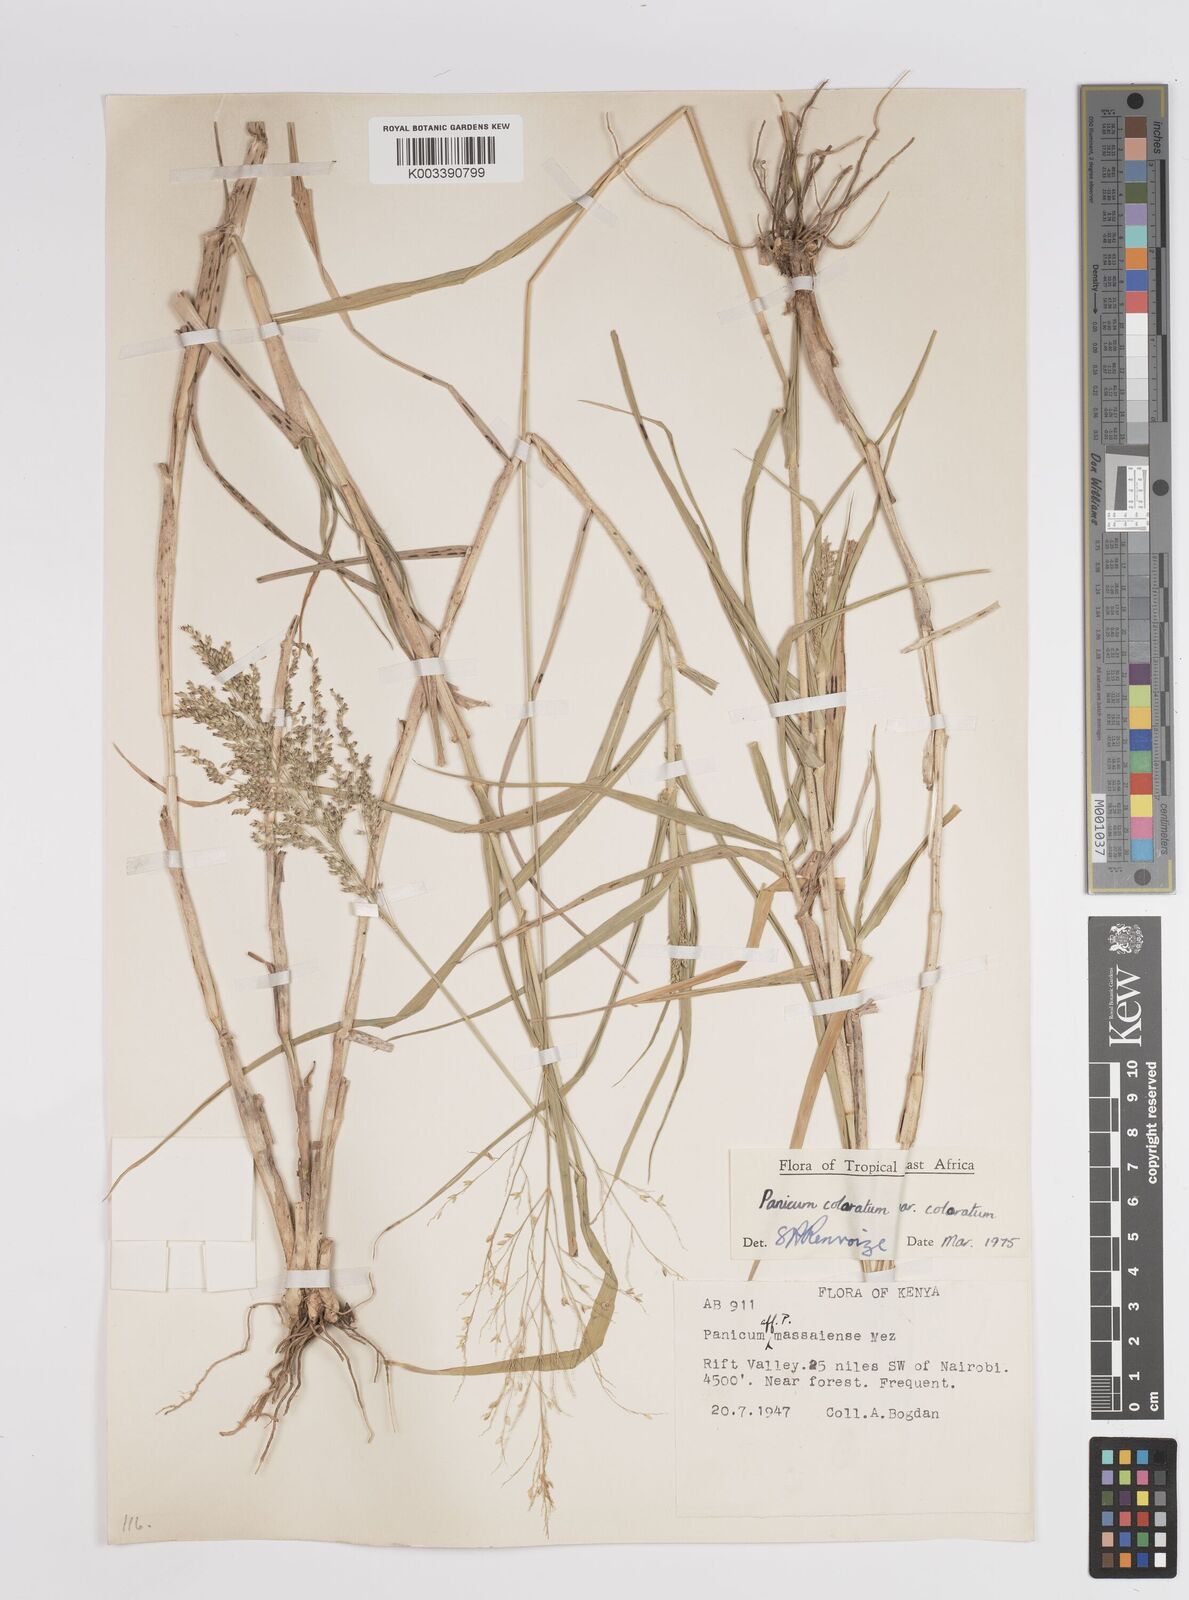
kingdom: Plantae
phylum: Tracheophyta
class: Liliopsida
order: Poales
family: Poaceae
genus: Panicum
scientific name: Panicum coloratum
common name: Kleingrass
